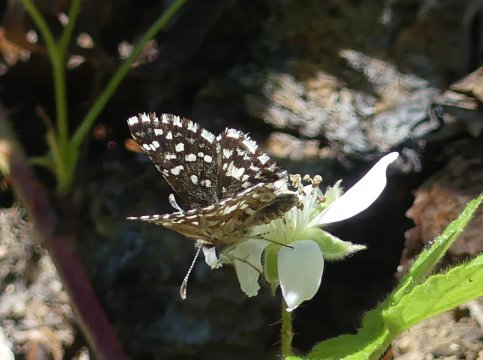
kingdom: Animalia
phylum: Arthropoda
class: Insecta
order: Lepidoptera
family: Hesperiidae
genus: Pyrgus
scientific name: Pyrgus ruralis
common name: Two-banded Checkered-Skipper
